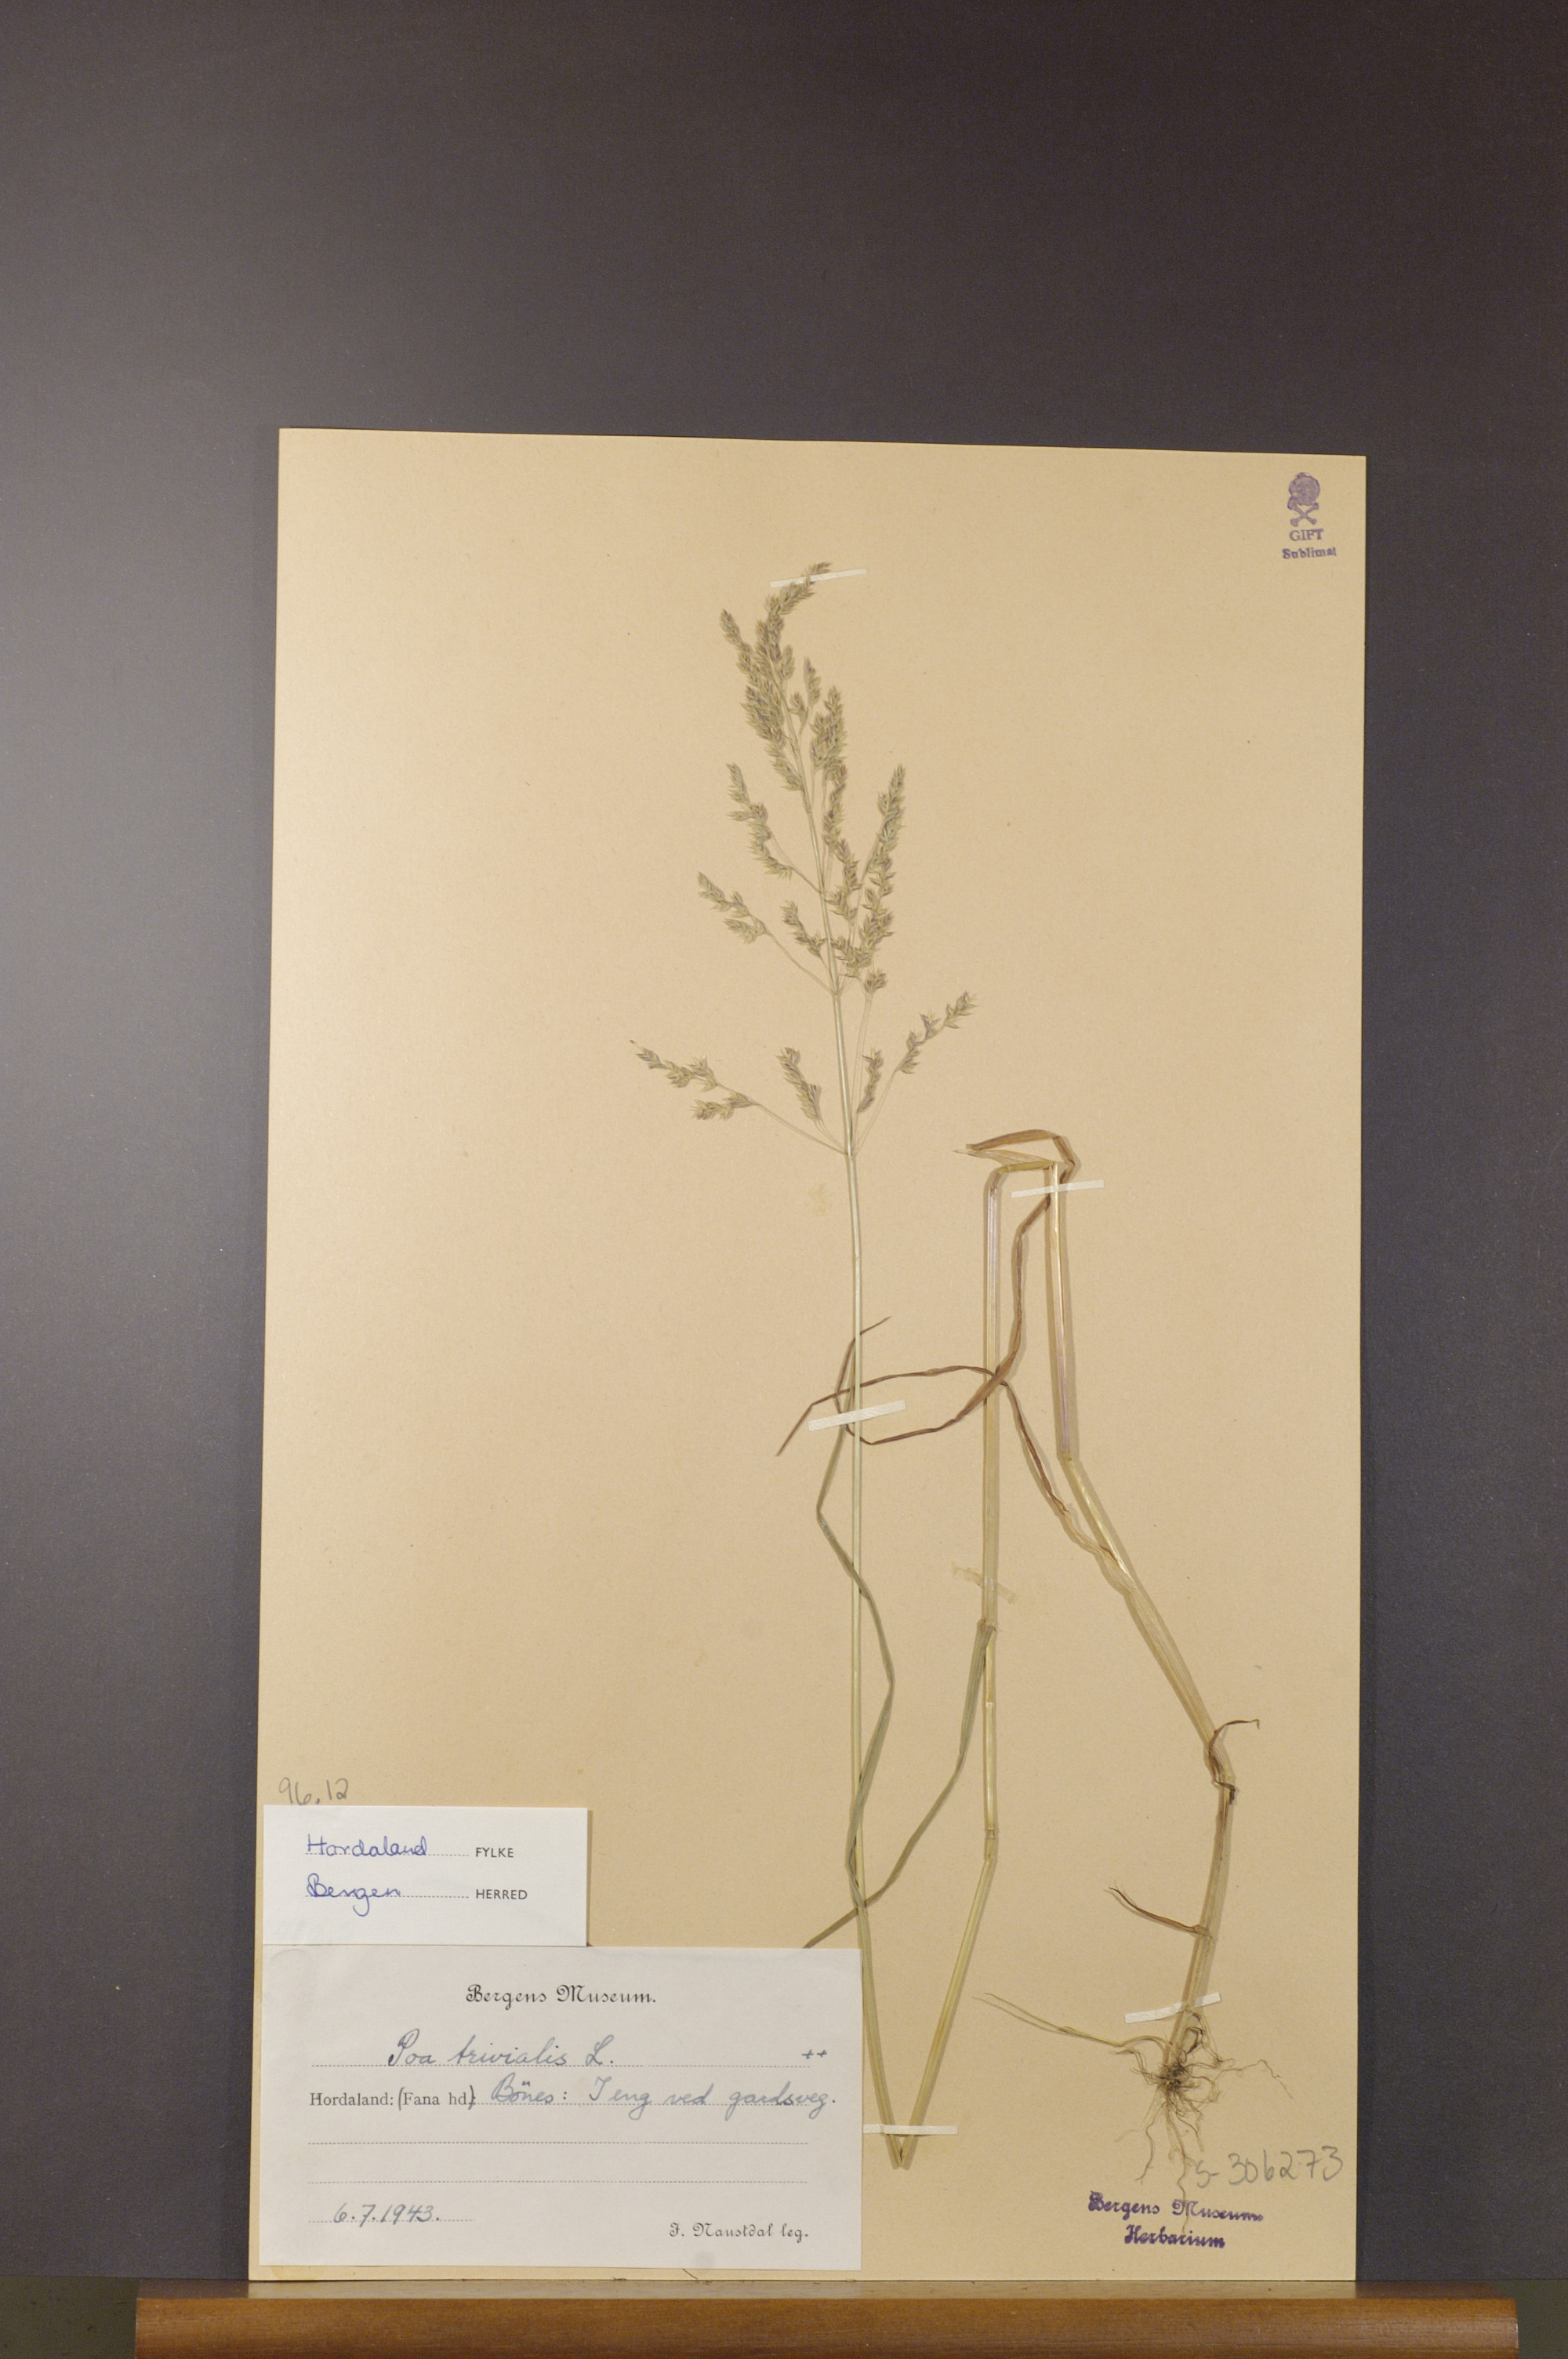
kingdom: Plantae
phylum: Tracheophyta
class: Liliopsida
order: Poales
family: Poaceae
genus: Poa
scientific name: Poa trivialis
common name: Rough bluegrass
